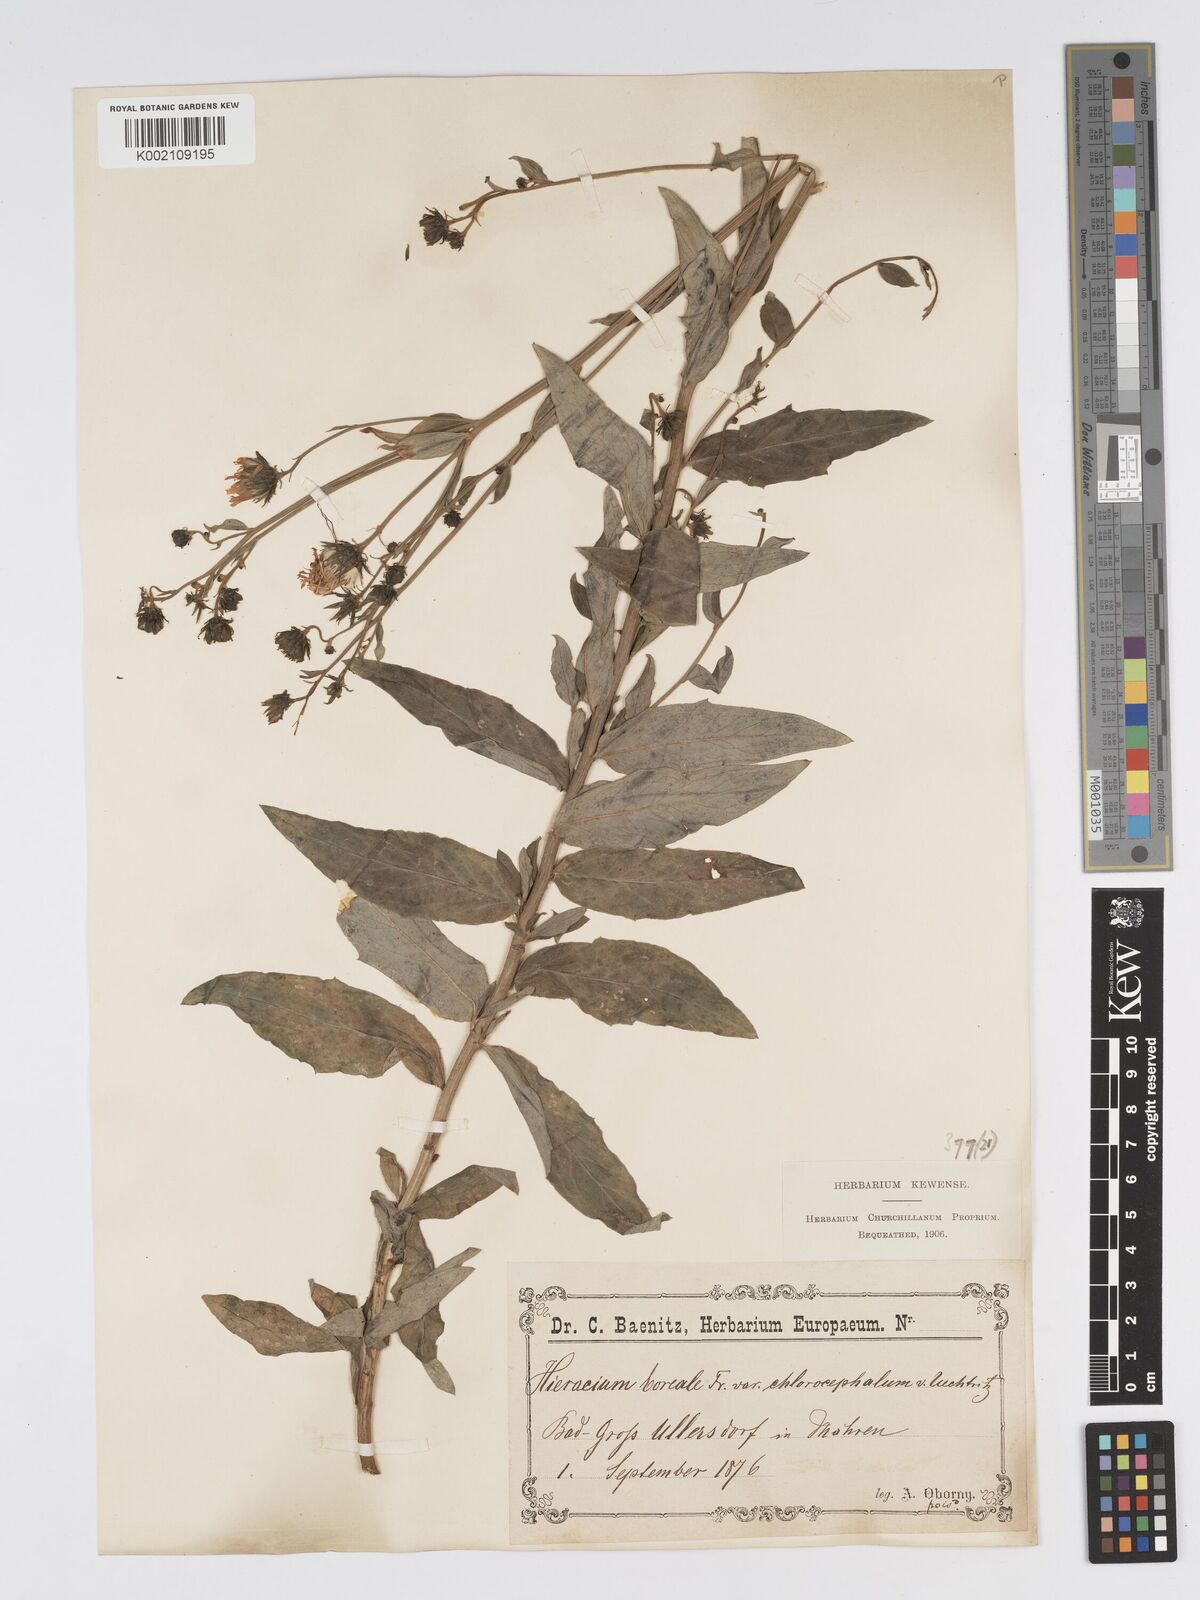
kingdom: Plantae
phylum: Tracheophyta
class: Magnoliopsida
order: Asterales
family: Asteraceae
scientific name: Asteraceae
